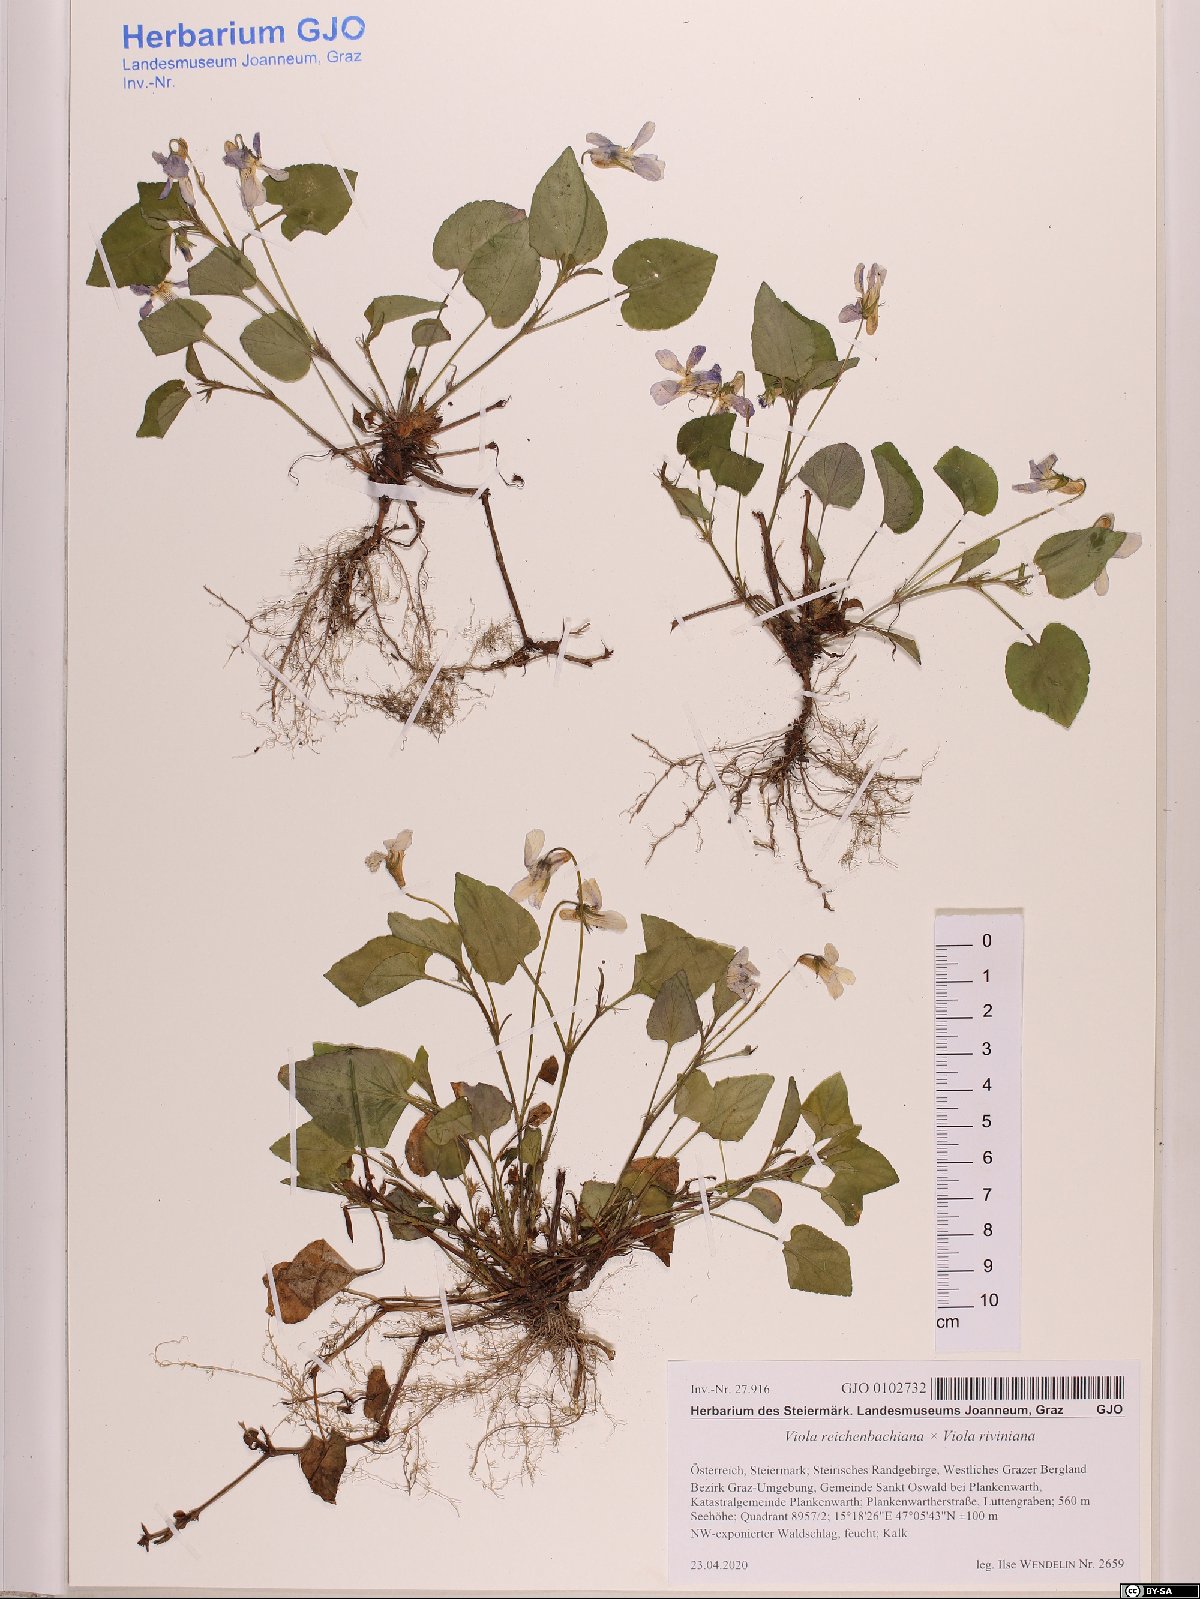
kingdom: Plantae
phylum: Tracheophyta
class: Magnoliopsida
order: Malpighiales
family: Violaceae
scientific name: Violaceae
